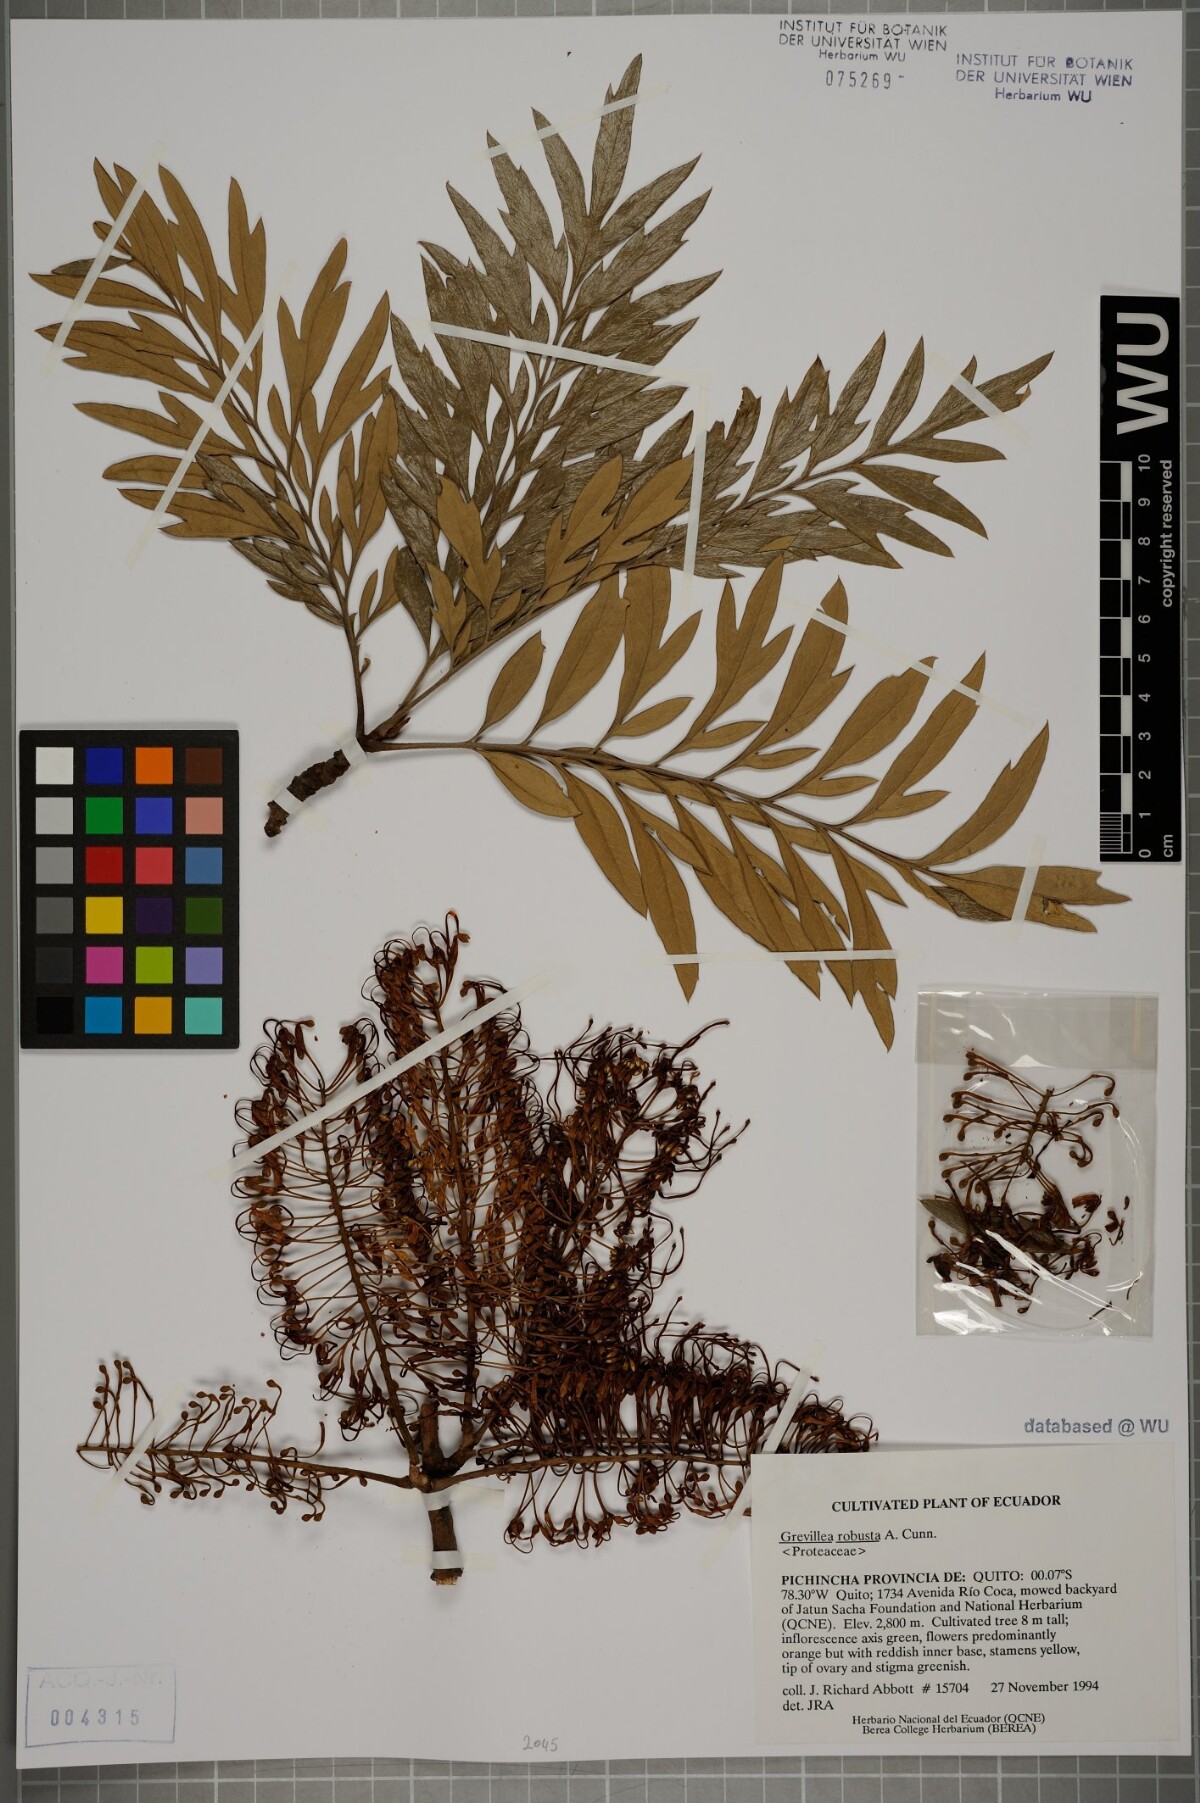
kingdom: Plantae
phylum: Tracheophyta
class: Magnoliopsida
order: Proteales
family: Proteaceae
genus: Grevillea
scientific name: Grevillea robusta
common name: Silkoak
